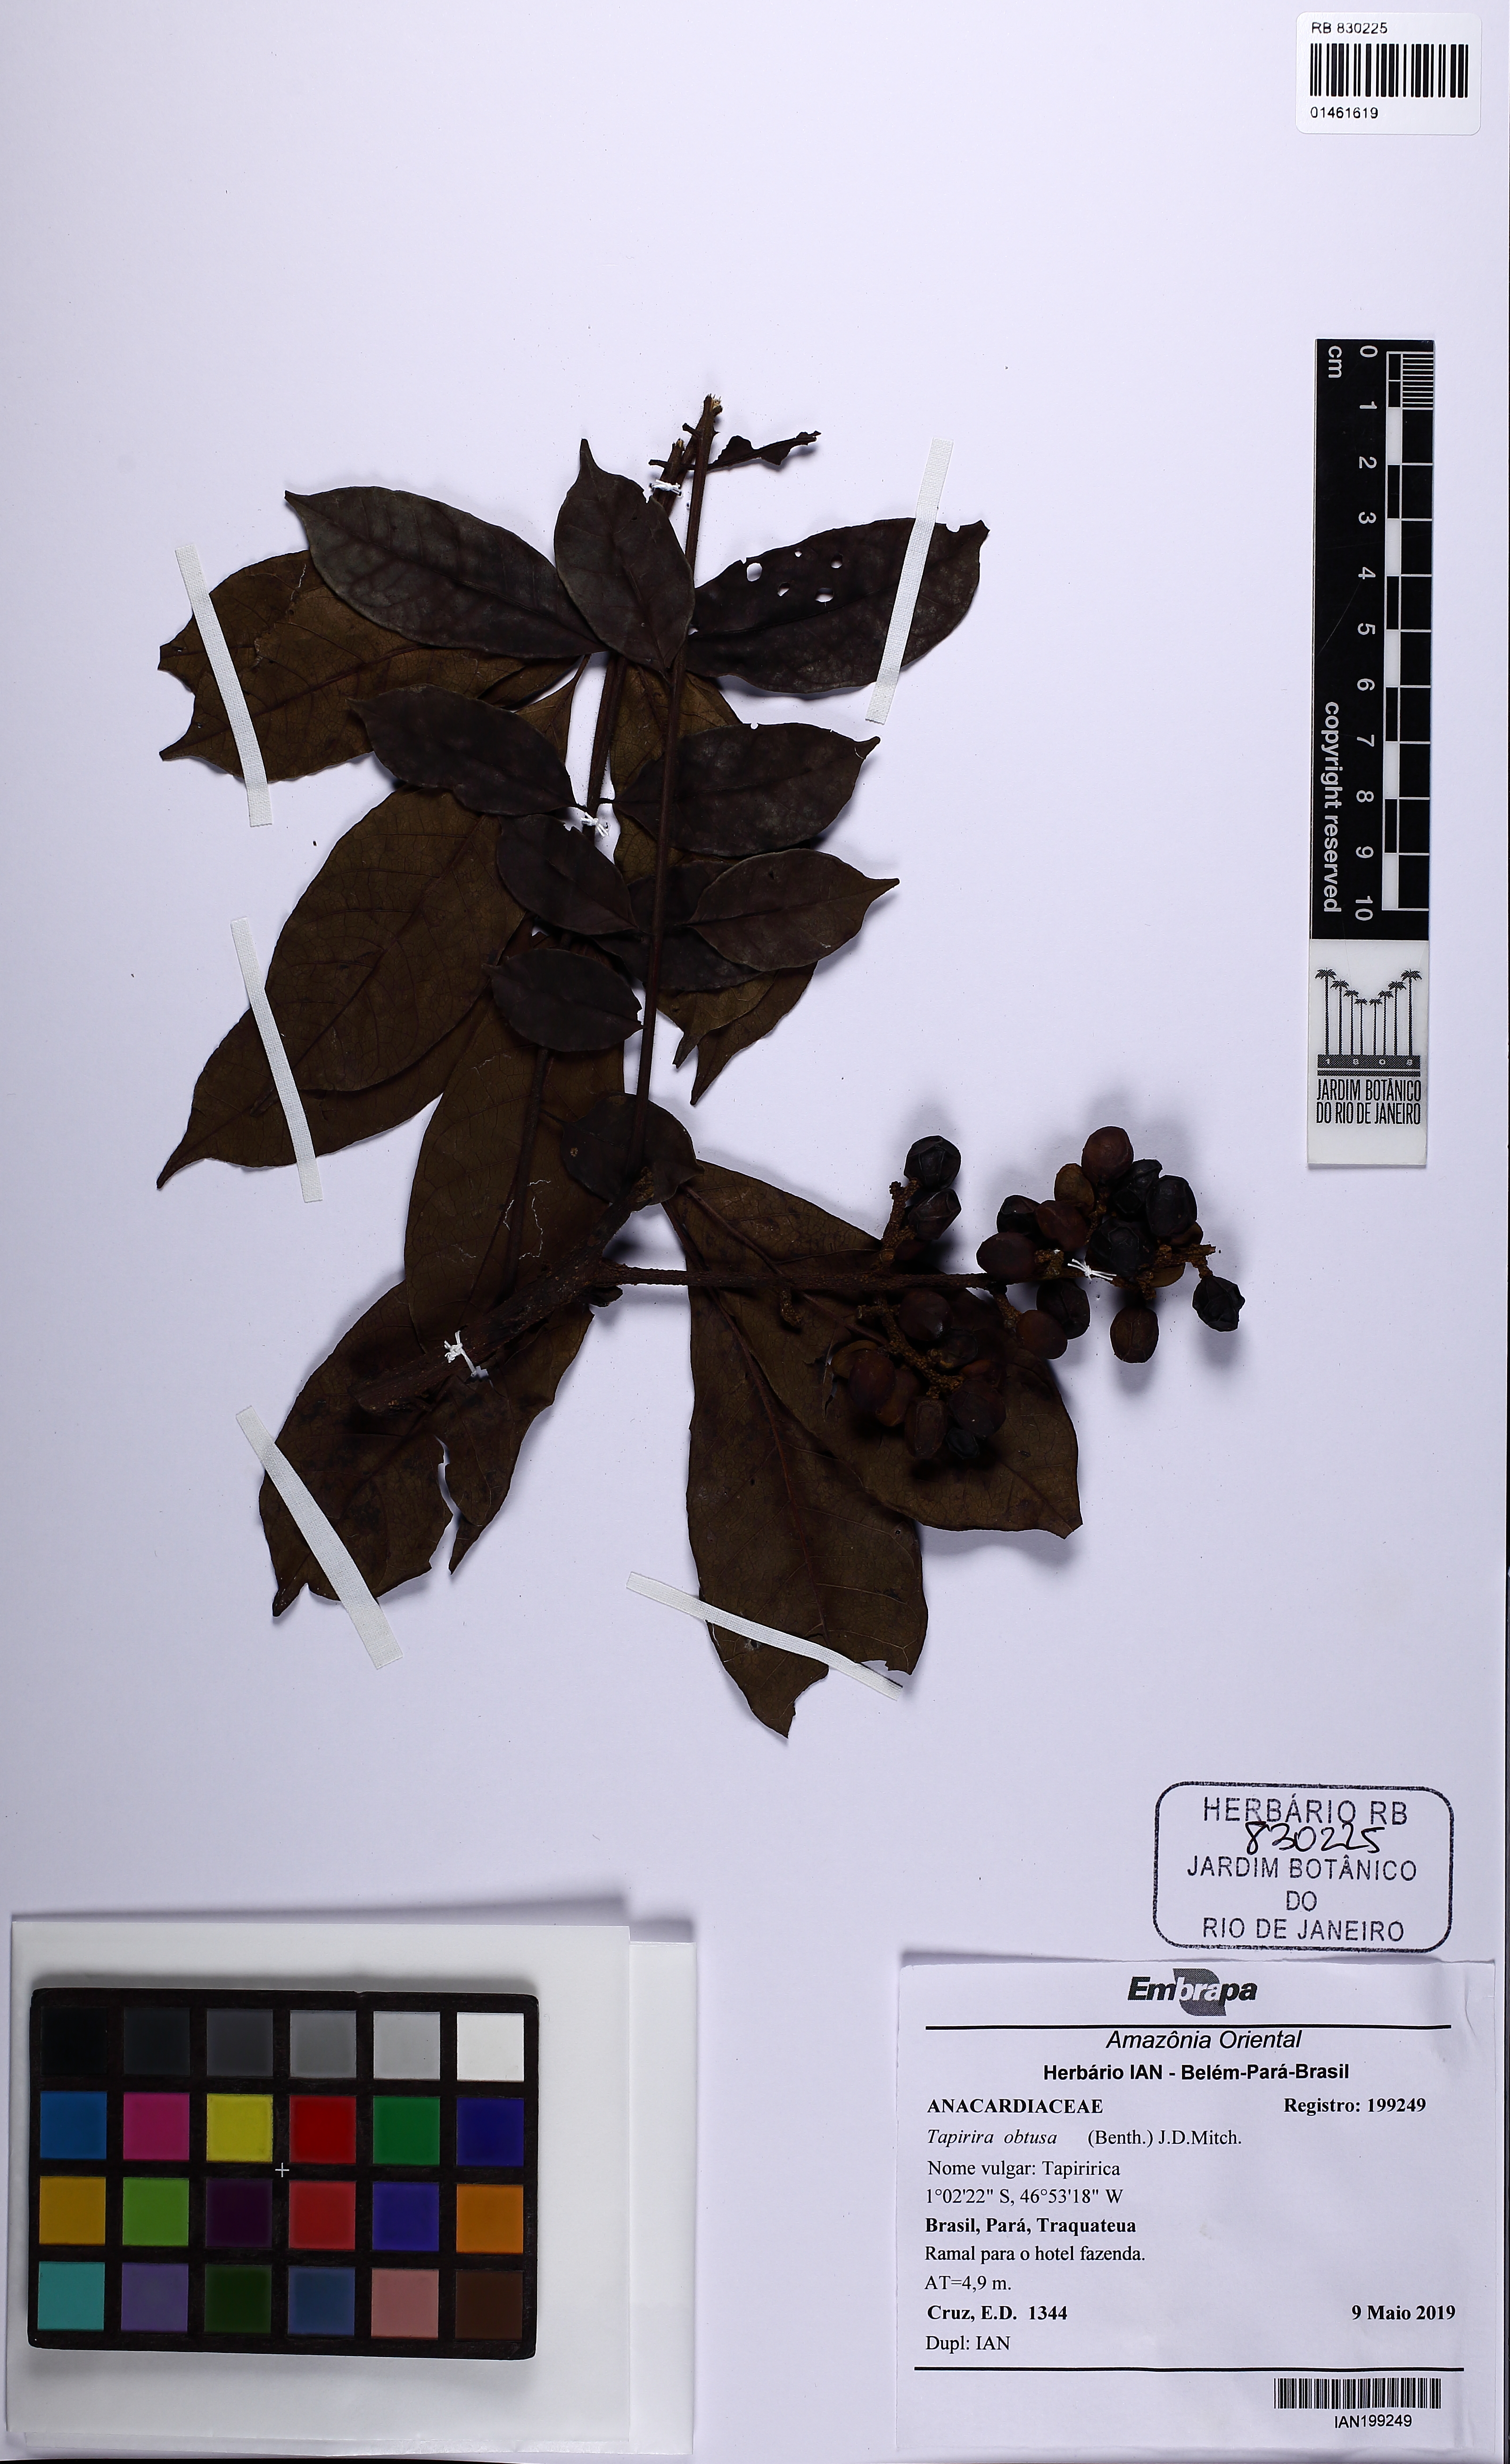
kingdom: Plantae
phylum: Tracheophyta
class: Magnoliopsida
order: Sapindales
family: Anacardiaceae
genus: Tapirira
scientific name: Tapirira obtusa
